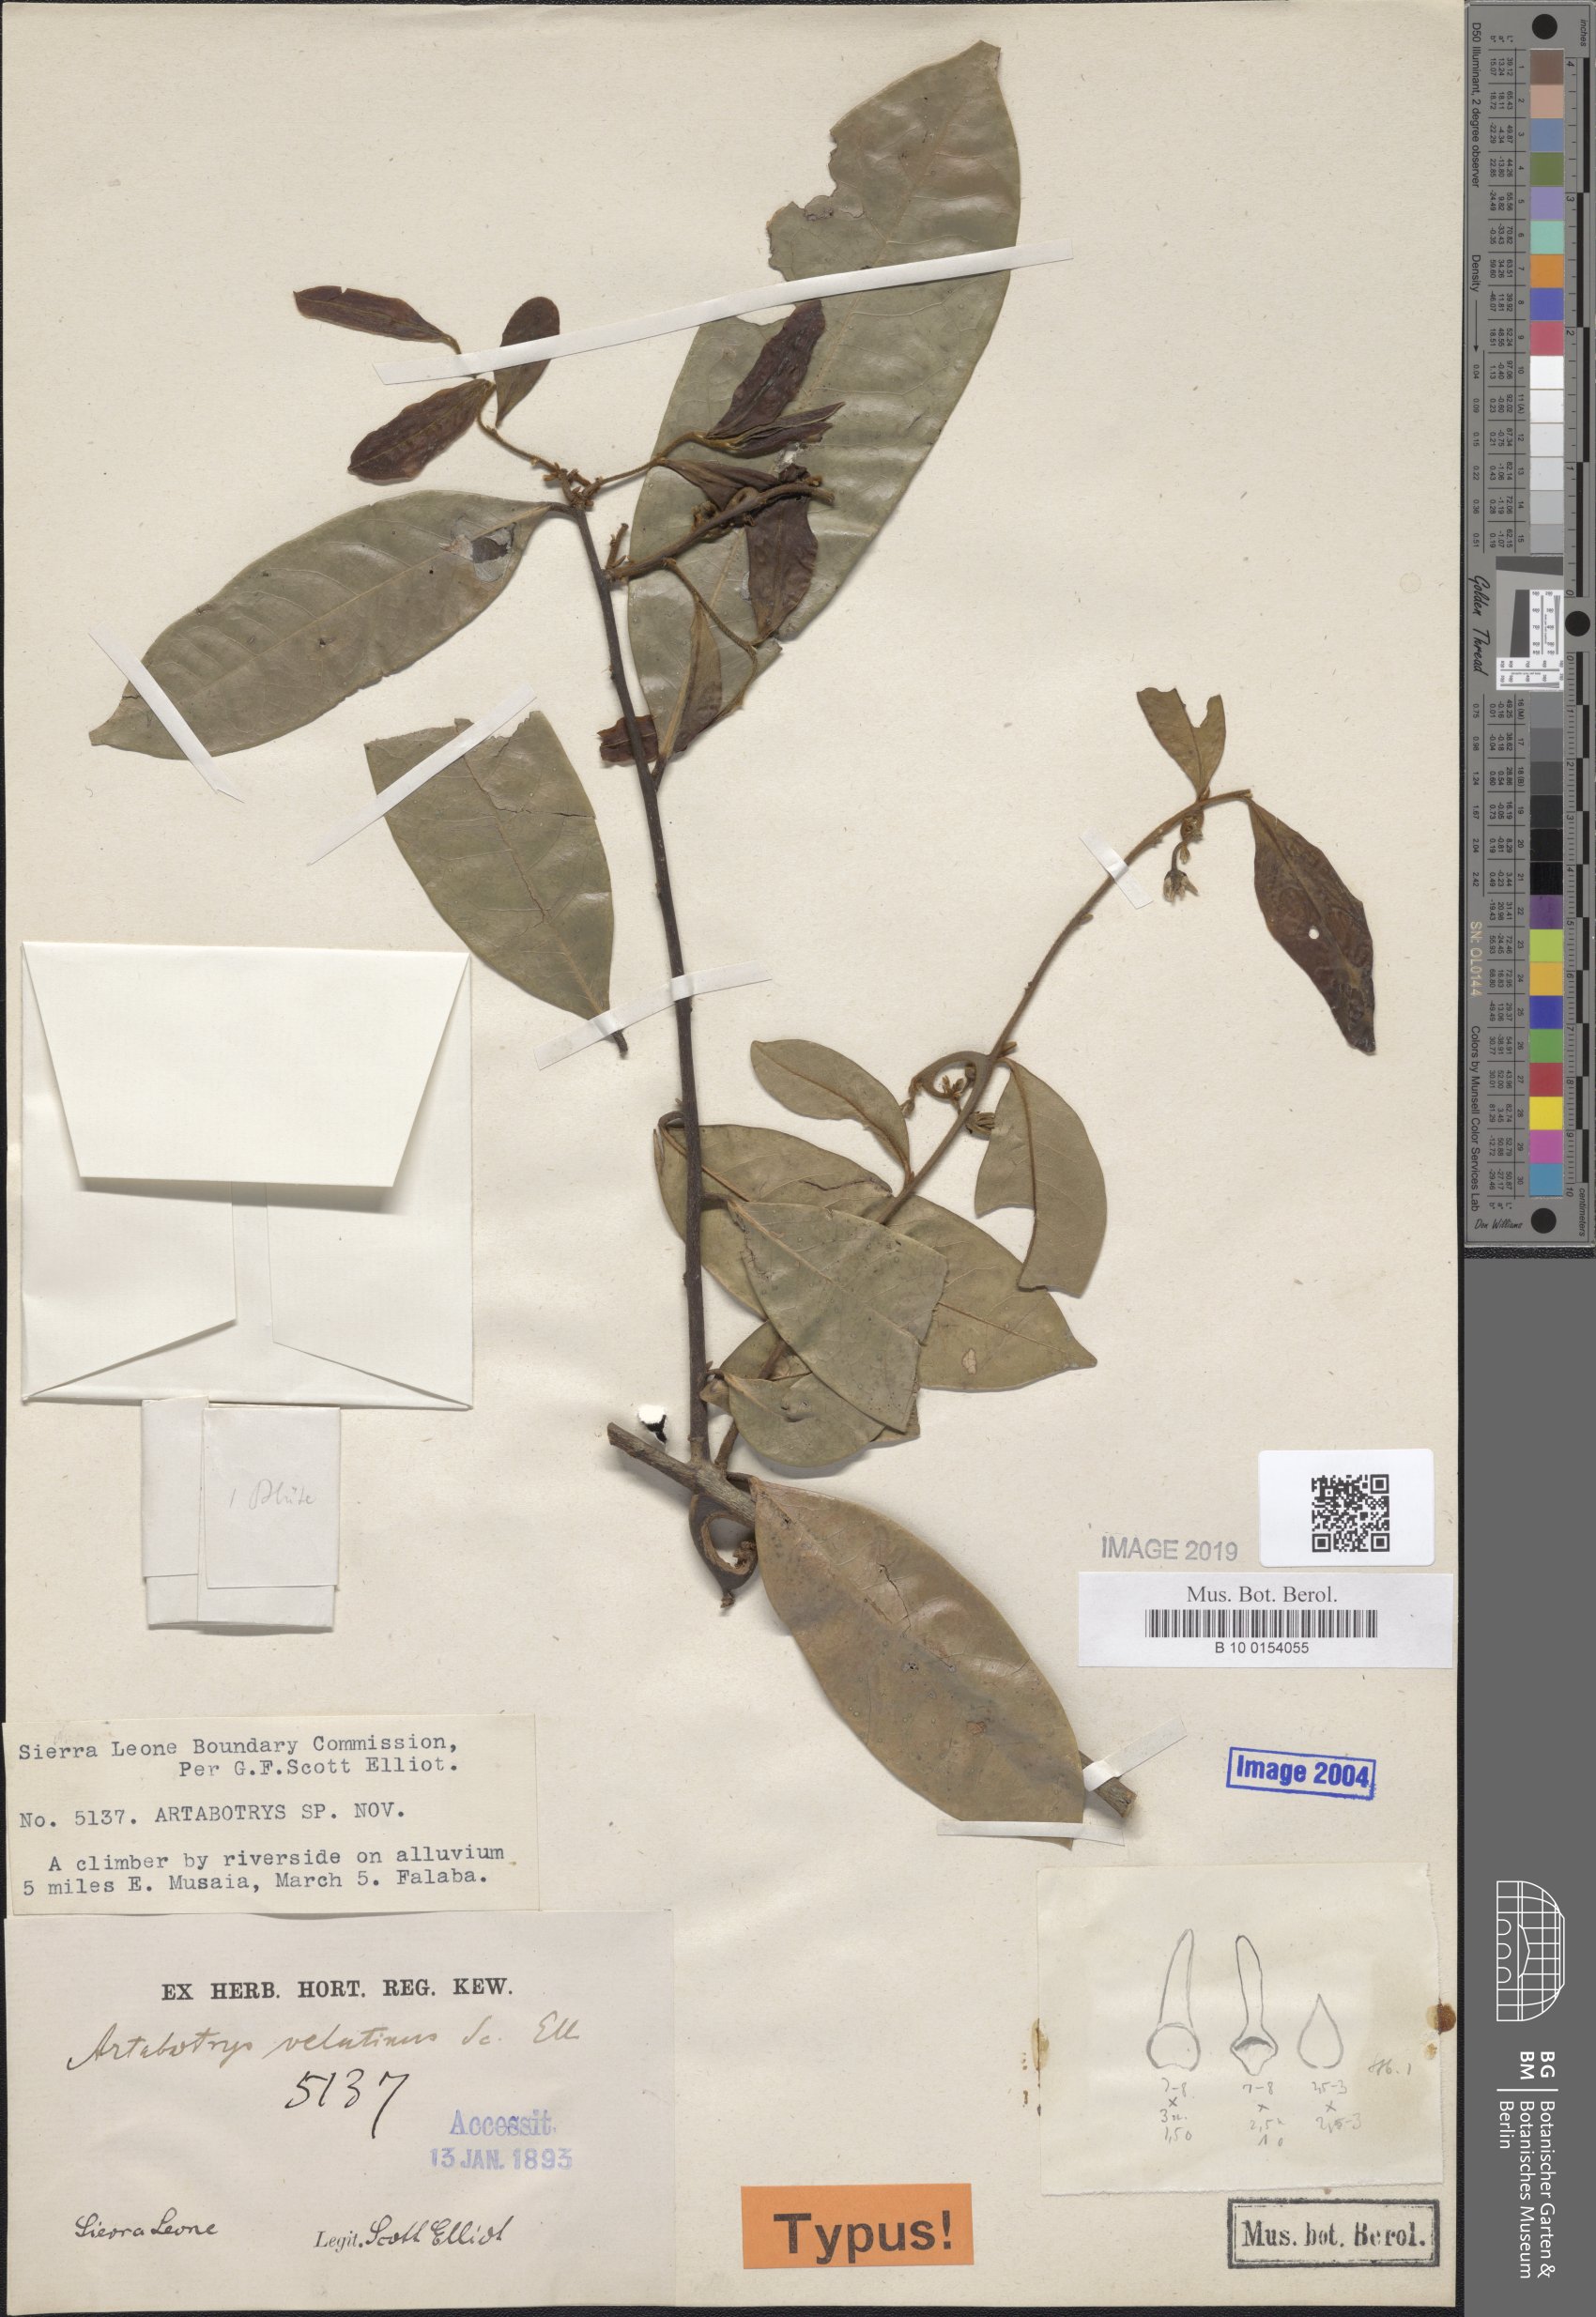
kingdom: Plantae
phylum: Tracheophyta
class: Magnoliopsida
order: Magnoliales
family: Annonaceae
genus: Artabotrys
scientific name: Artabotrys velutinus
